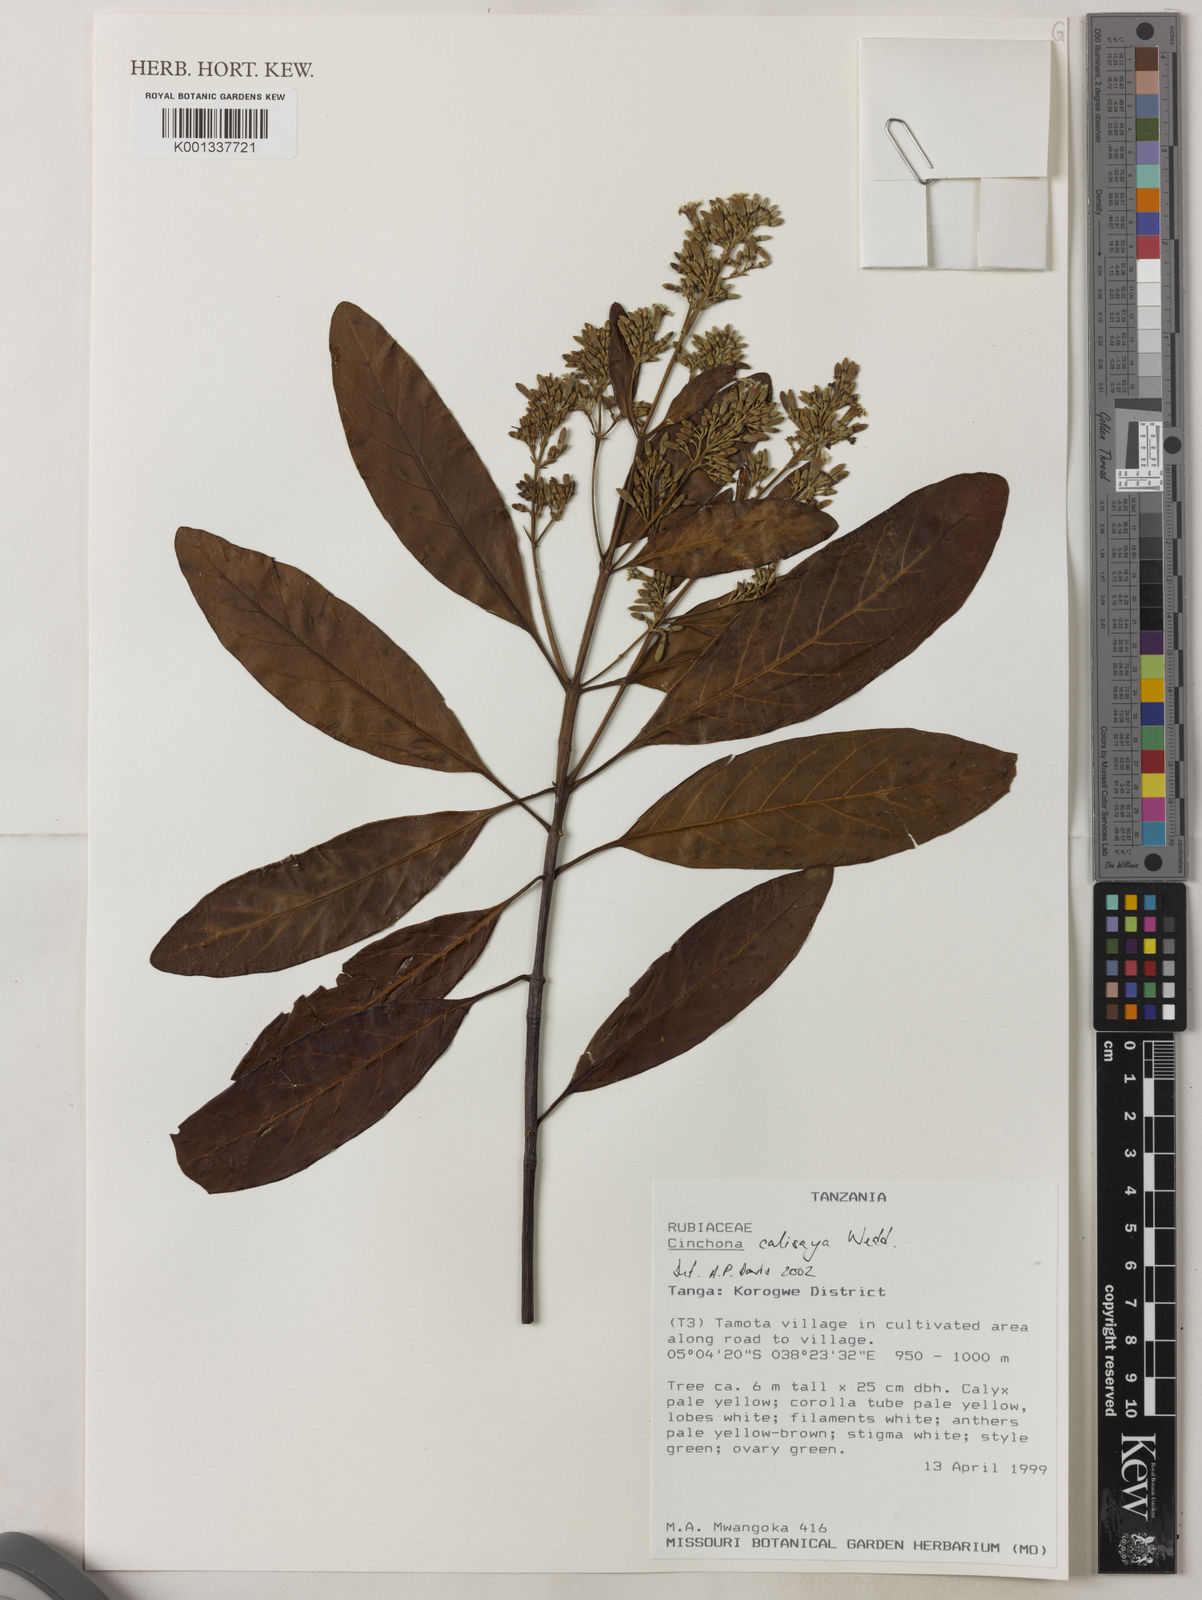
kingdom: Plantae
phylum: Tracheophyta
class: Magnoliopsida
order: Gentianales
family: Rubiaceae
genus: Cinchona
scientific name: Cinchona calisaya
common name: Ledgerbark
